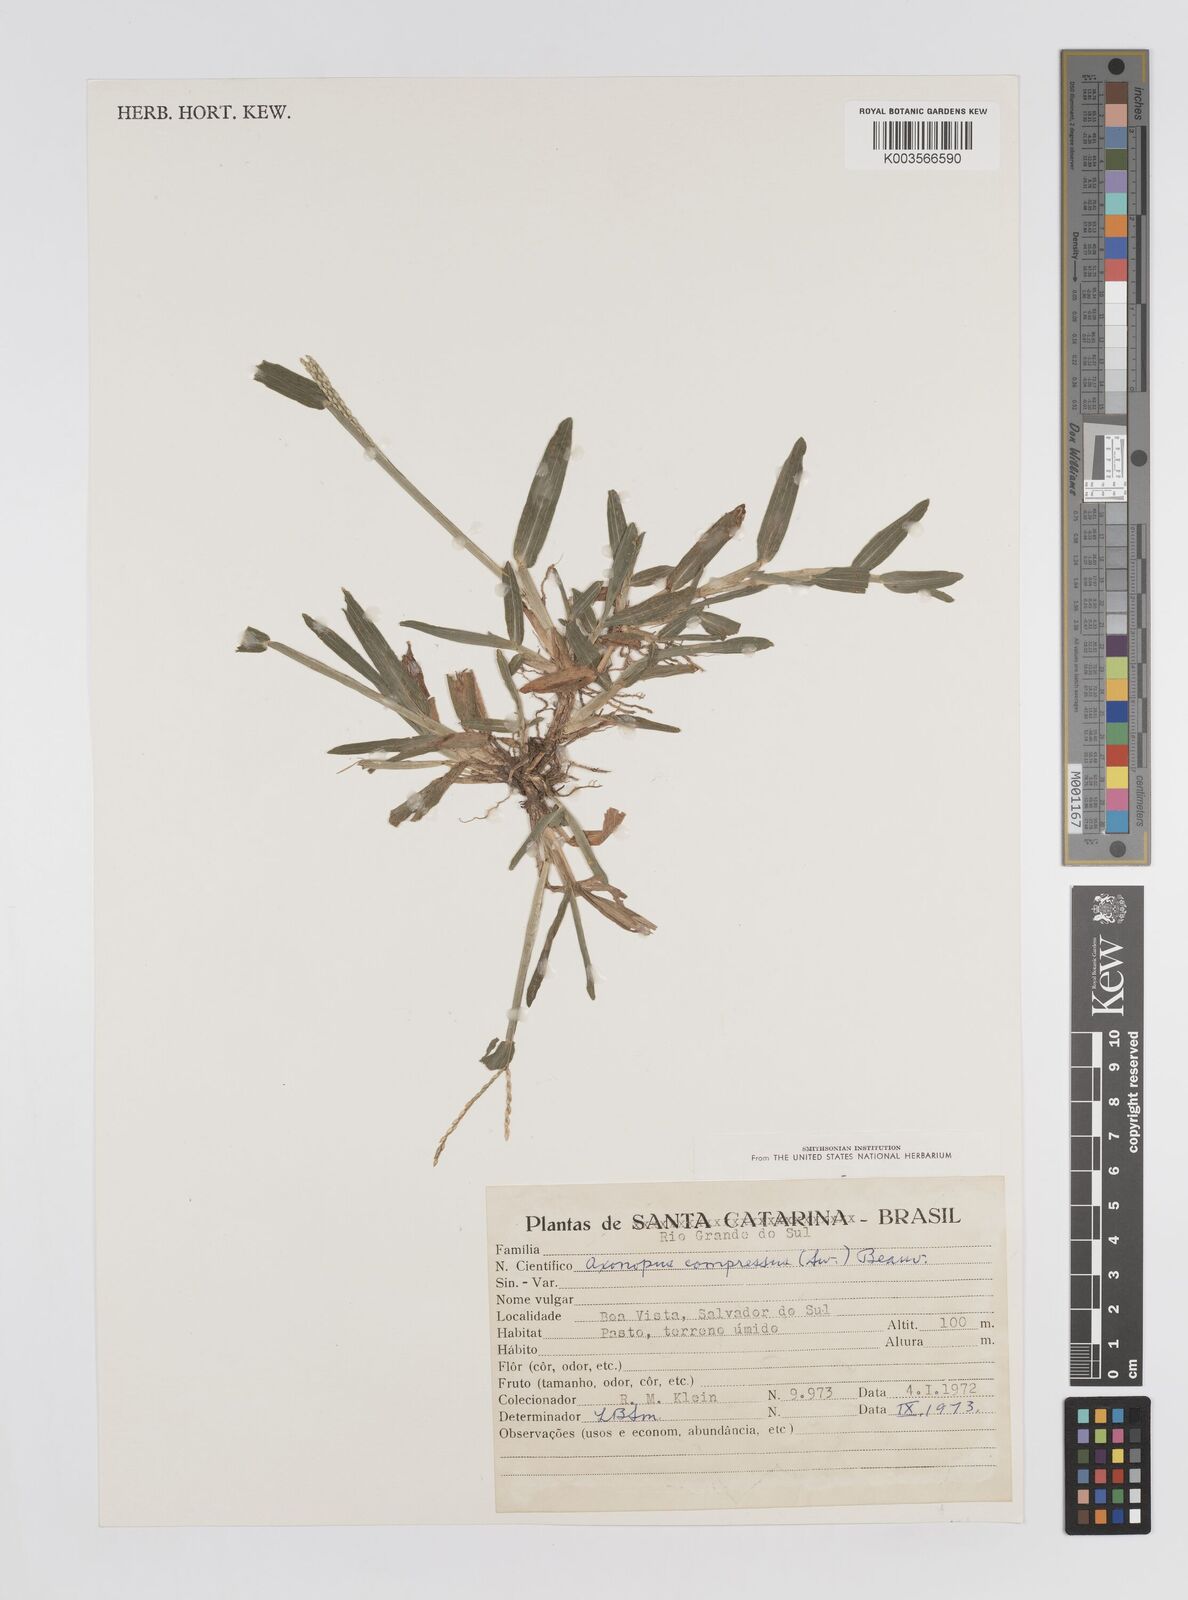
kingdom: Plantae
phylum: Tracheophyta
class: Liliopsida
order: Poales
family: Poaceae
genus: Axonopus
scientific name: Axonopus compressus
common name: American carpet grass
